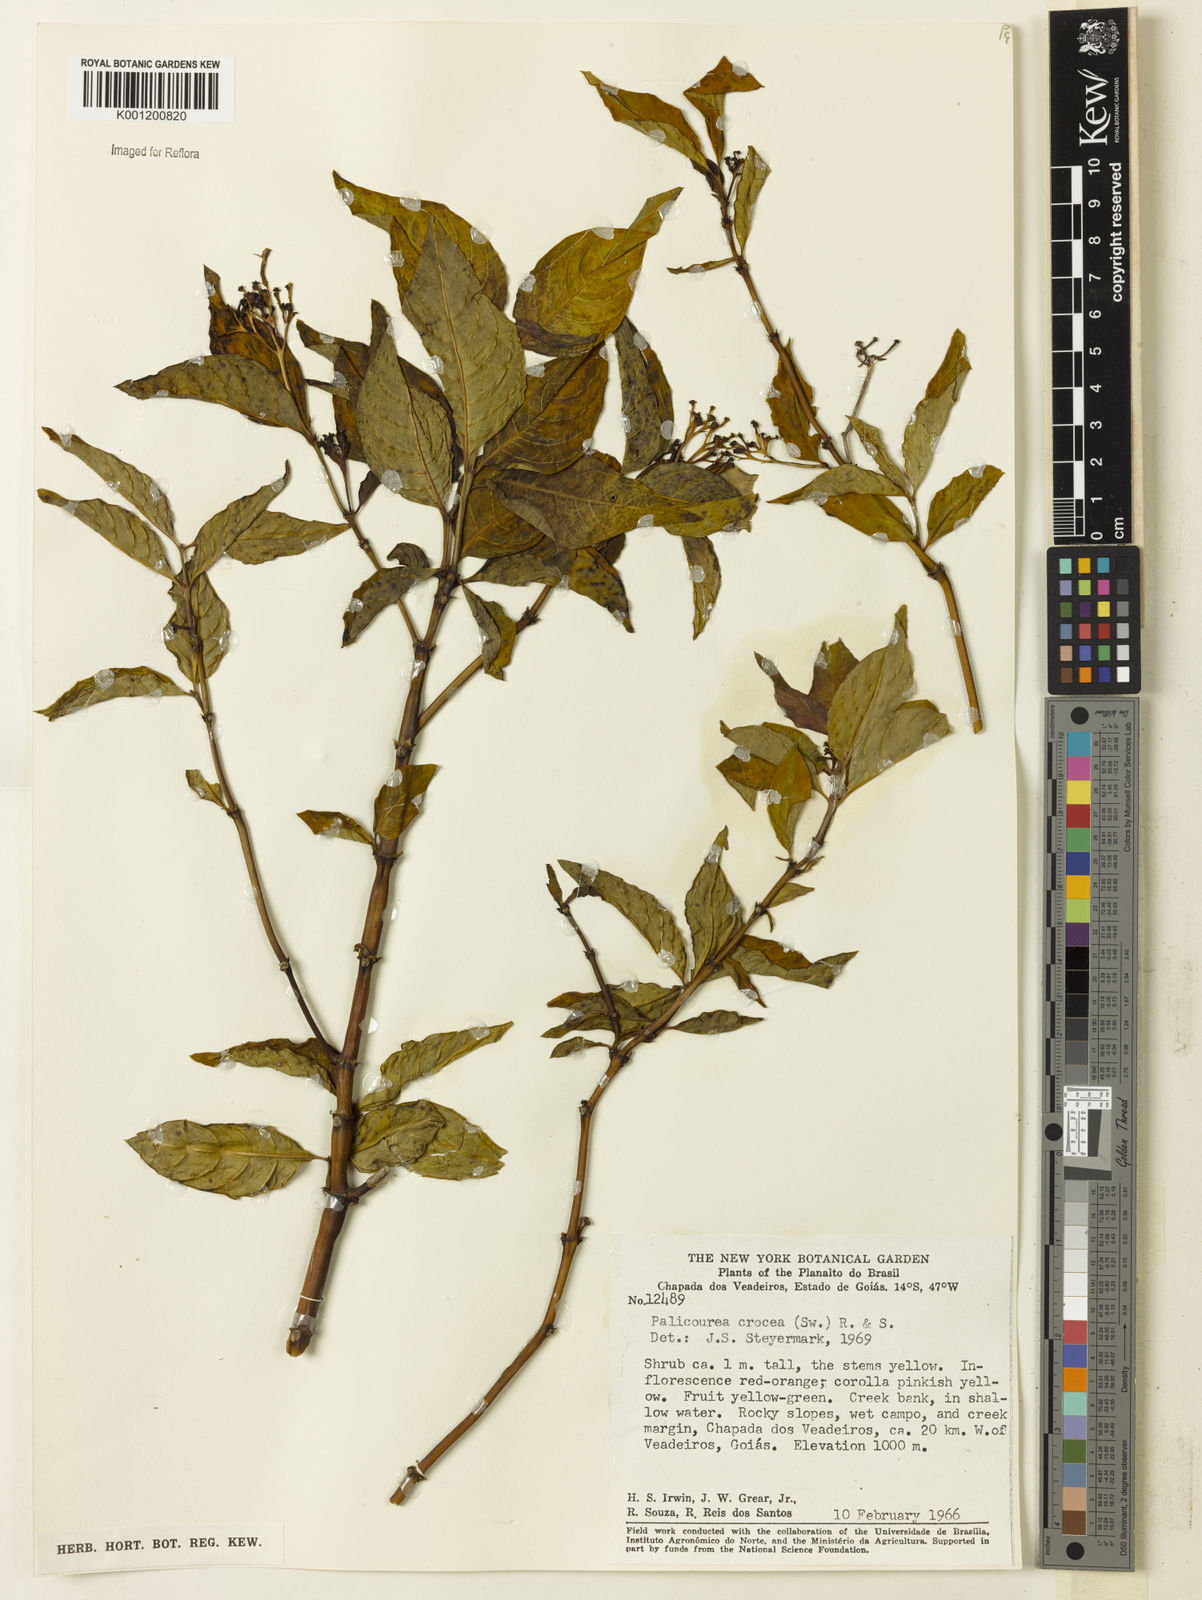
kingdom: Plantae
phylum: Tracheophyta
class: Magnoliopsida
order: Gentianales
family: Rubiaceae
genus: Palicourea
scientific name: Palicourea crocea
